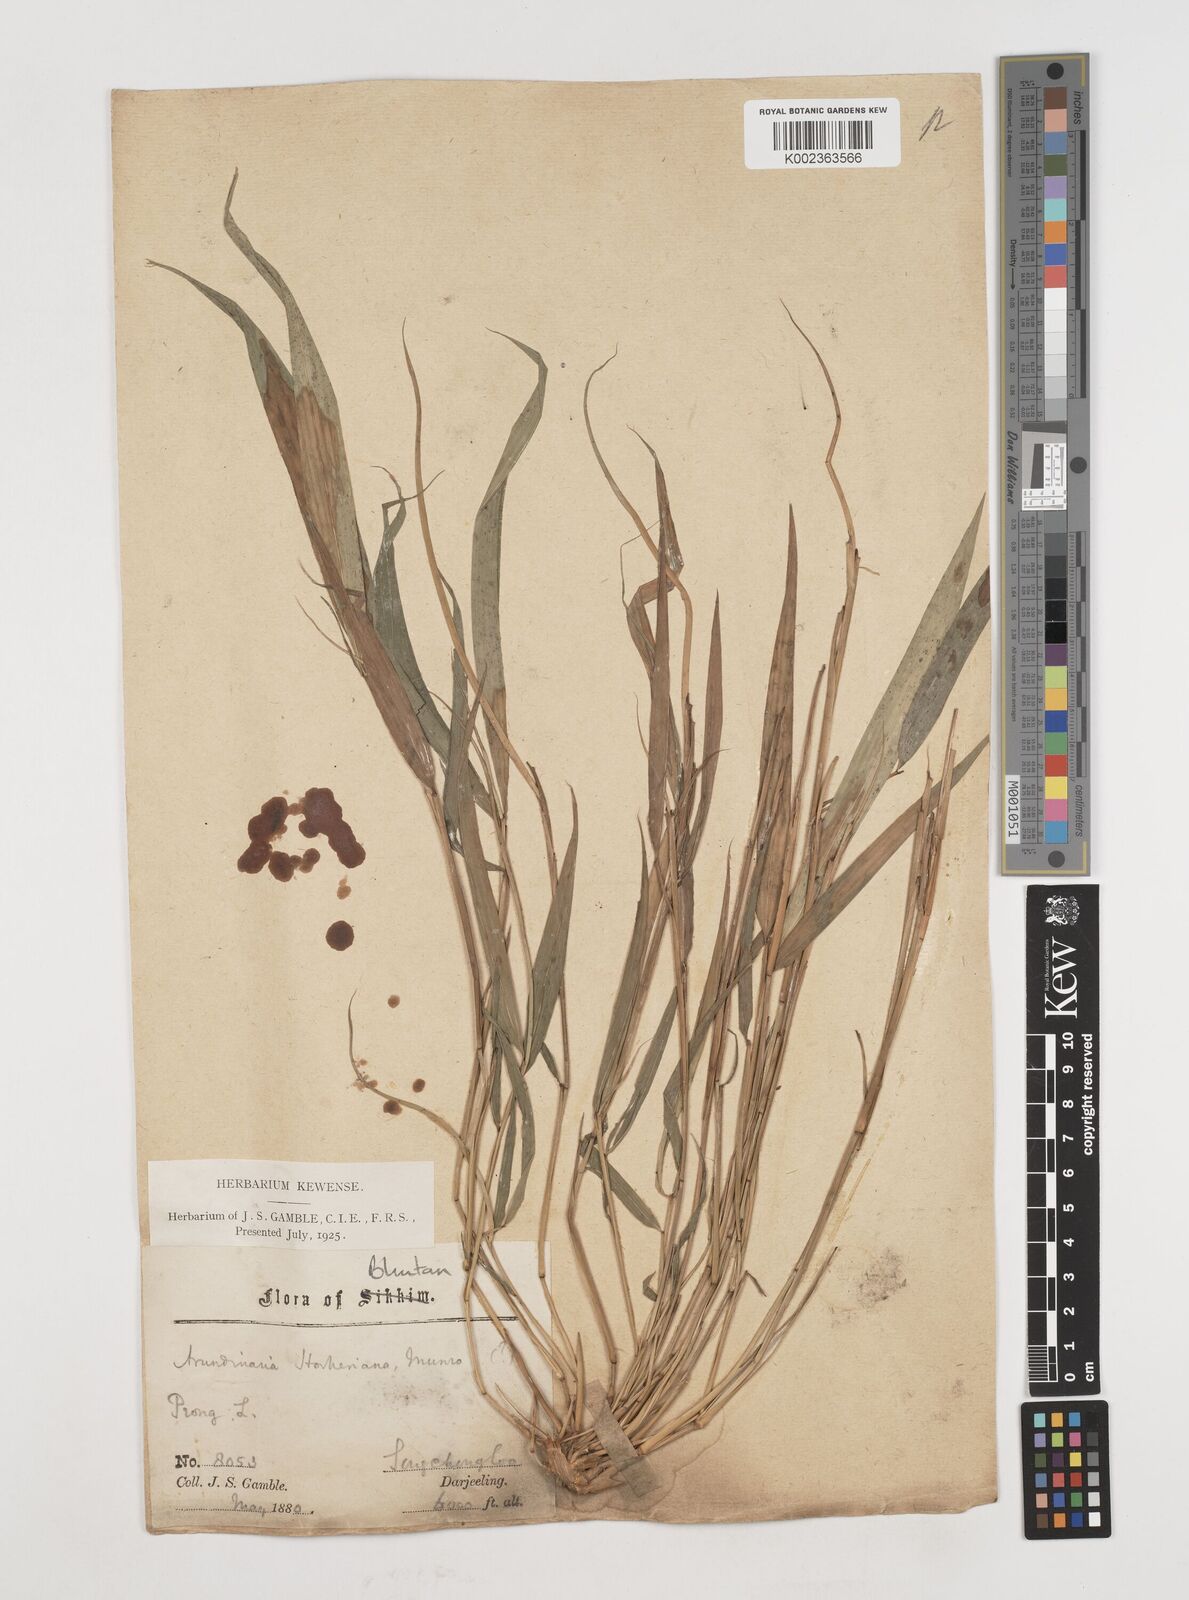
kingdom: Plantae
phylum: Tracheophyta
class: Liliopsida
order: Poales
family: Poaceae
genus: Himalayacalamus
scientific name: Himalayacalamus hookerianus
